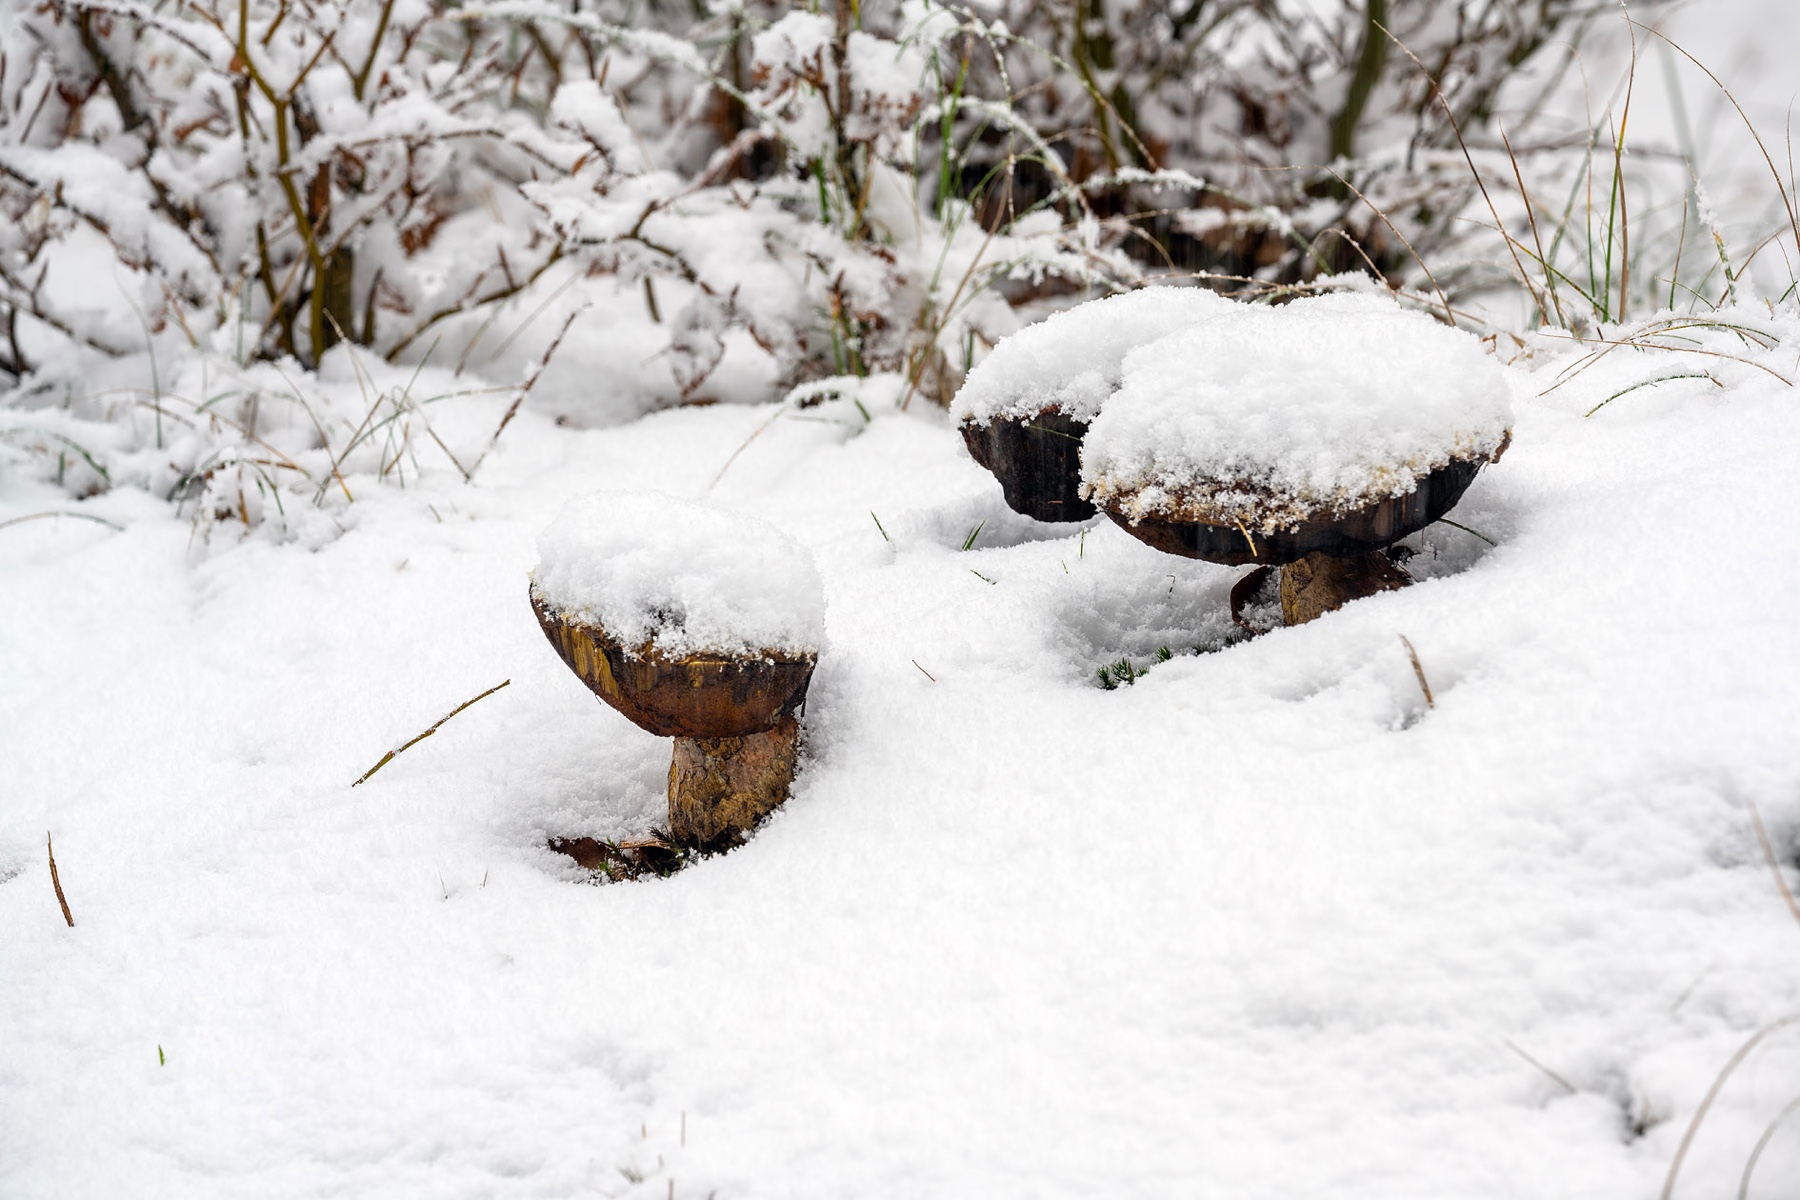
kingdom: Fungi
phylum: Basidiomycota
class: Agaricomycetes
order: Boletales
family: Boletaceae
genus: Neoboletus
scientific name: Neoboletus erythropus
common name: punktstokket indigorørhat
